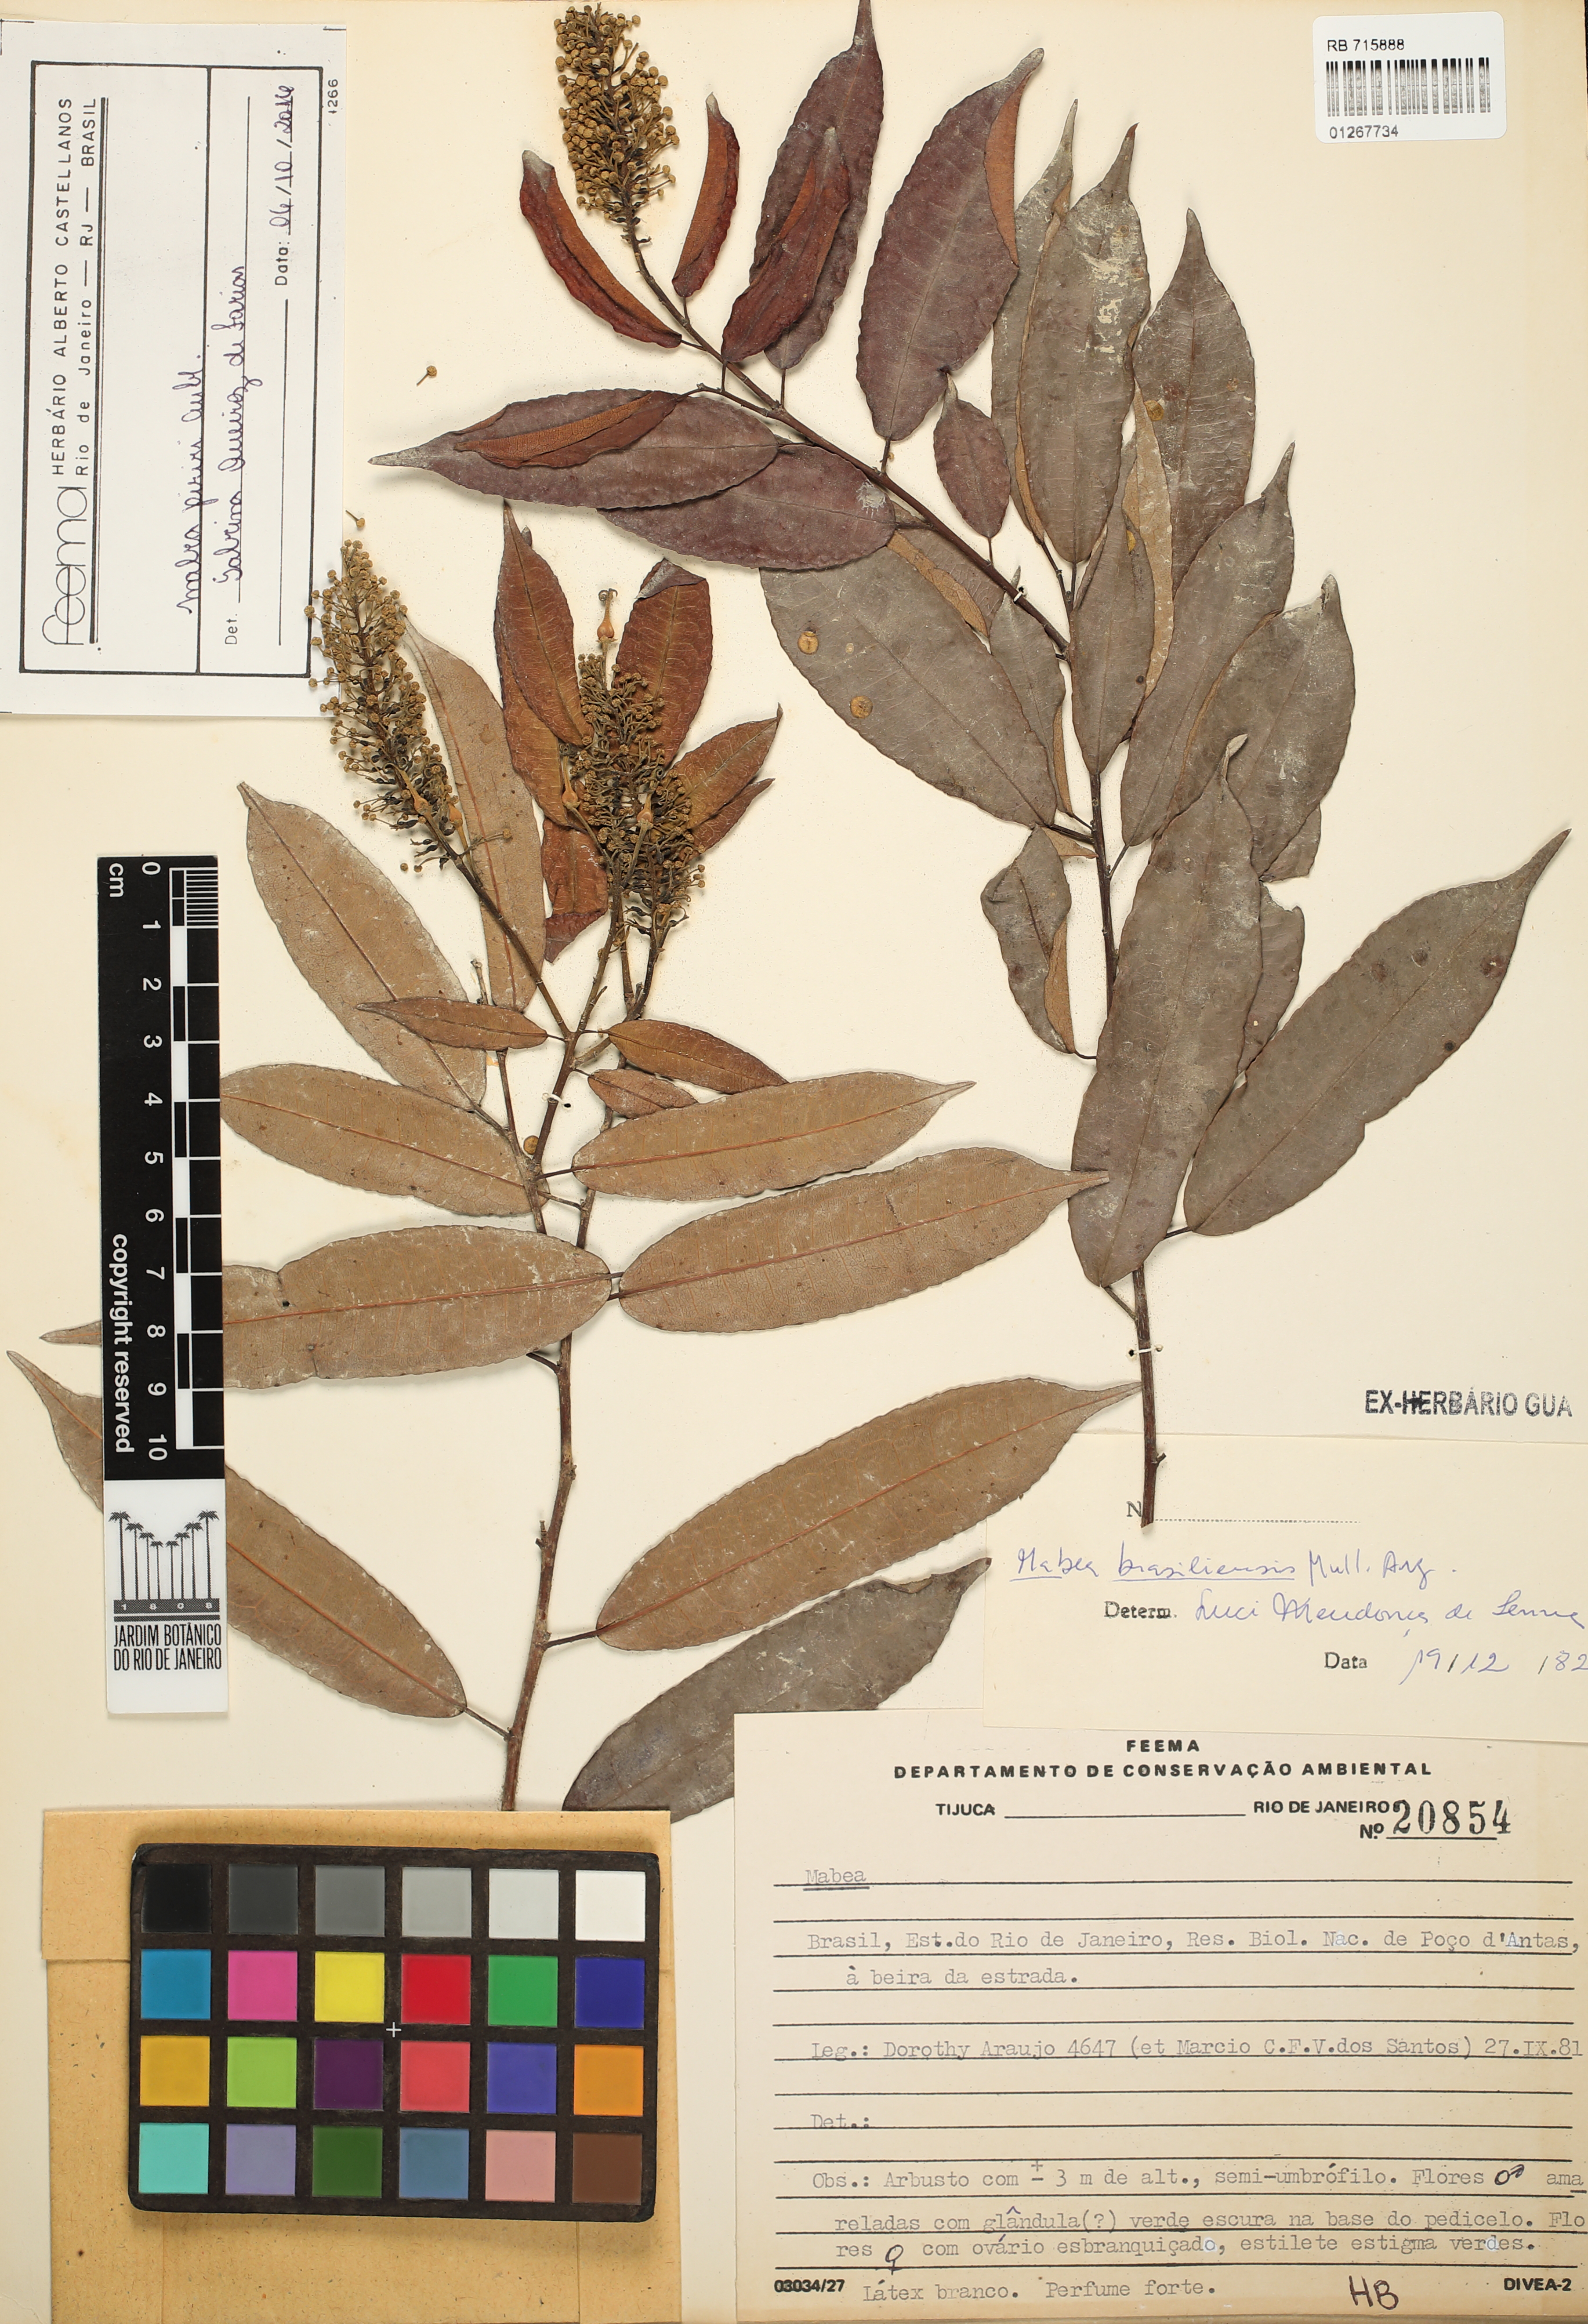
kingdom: Plantae
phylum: Tracheophyta
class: Magnoliopsida
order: Malpighiales
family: Euphorbiaceae
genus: Mabea
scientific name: Mabea piriri
